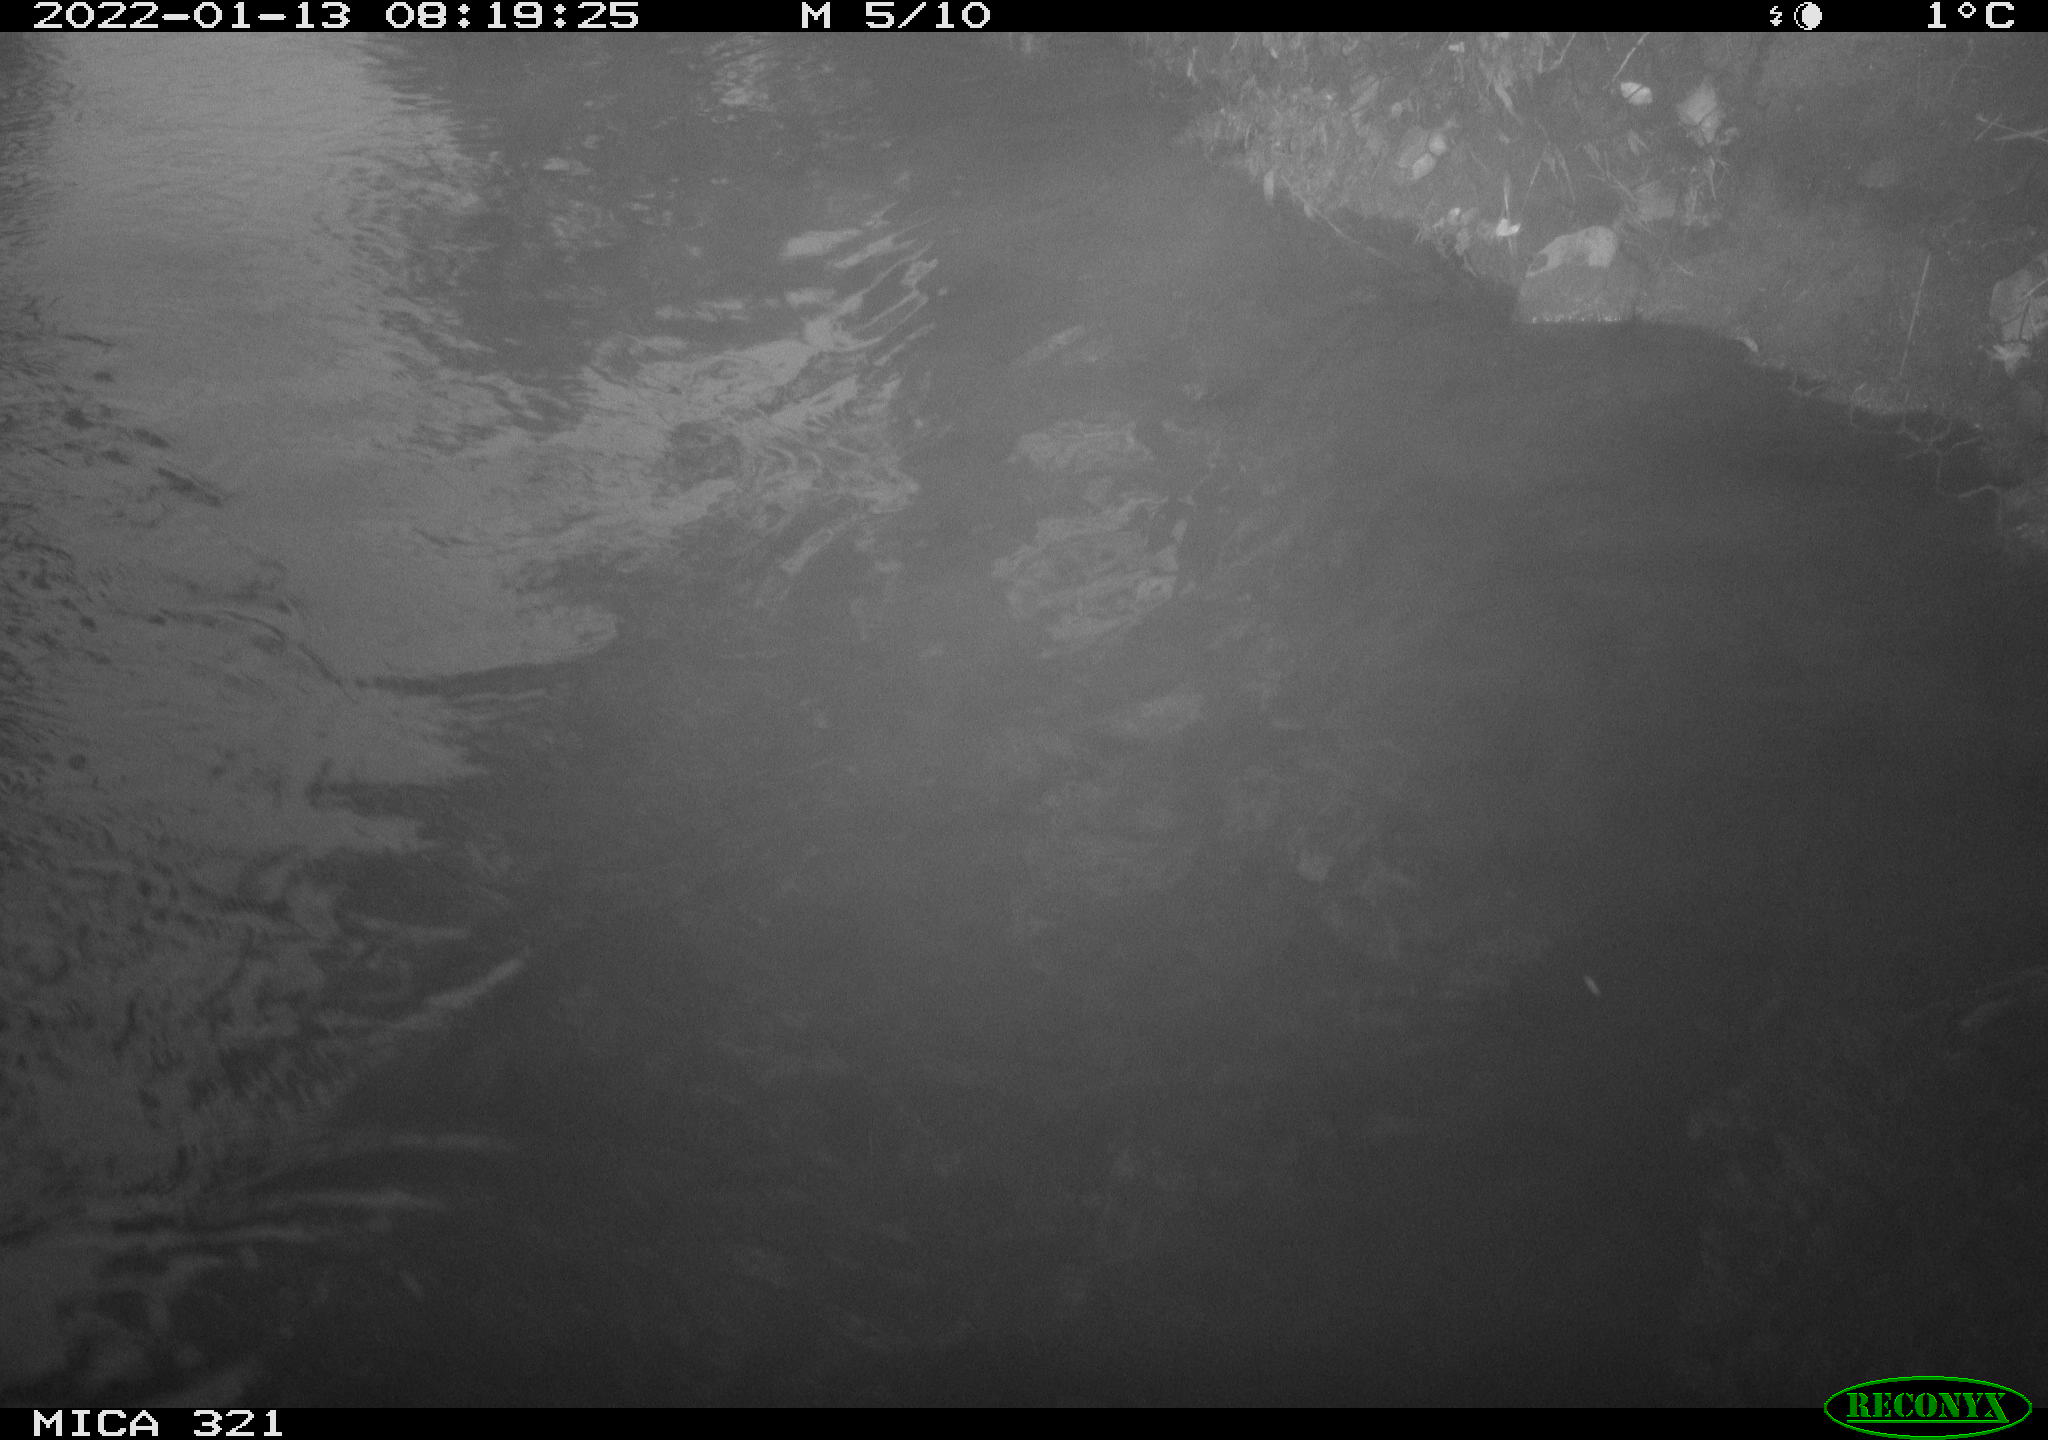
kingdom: Animalia
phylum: Chordata
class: Aves
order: Anseriformes
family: Anatidae
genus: Anas
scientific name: Anas platyrhynchos
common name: Mallard
